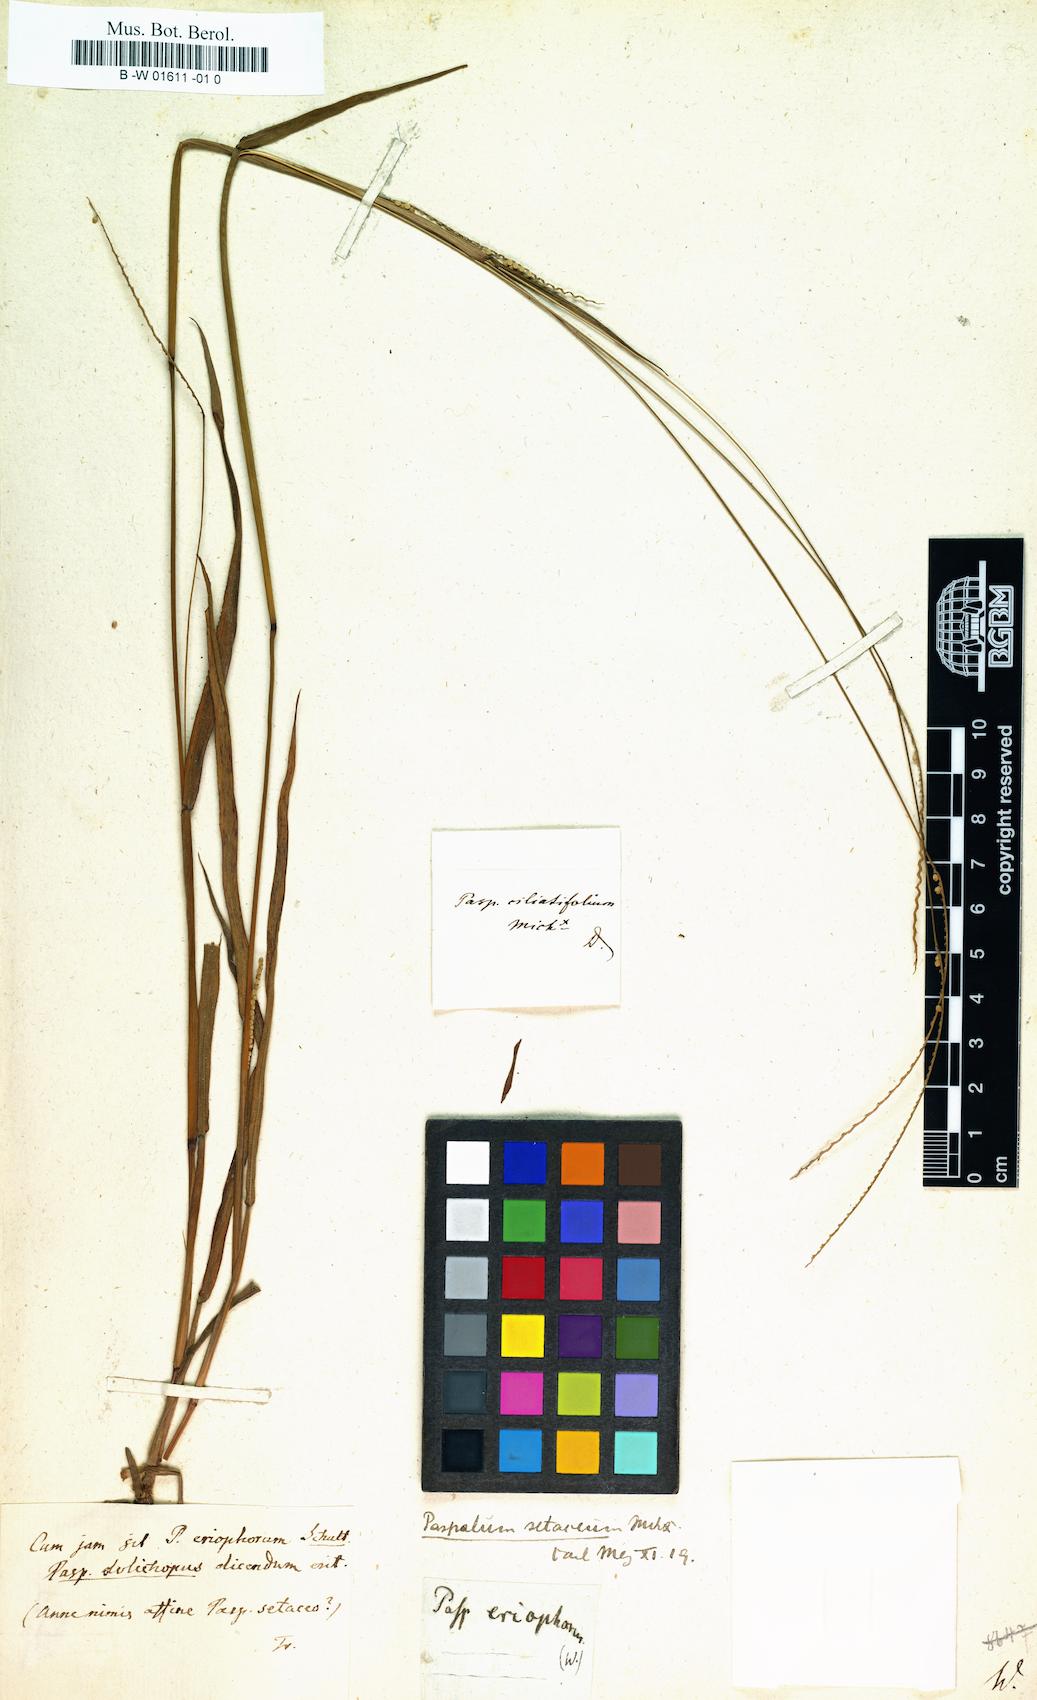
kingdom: Plantae
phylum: Tracheophyta
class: Liliopsida
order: Poales
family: Poaceae
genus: Paspalum
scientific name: Paspalum
